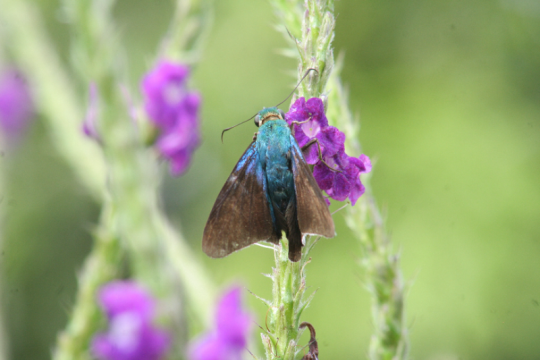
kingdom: Animalia
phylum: Arthropoda
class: Insecta
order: Lepidoptera
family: Hesperiidae
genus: Astraptes
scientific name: Astraptes alardus
